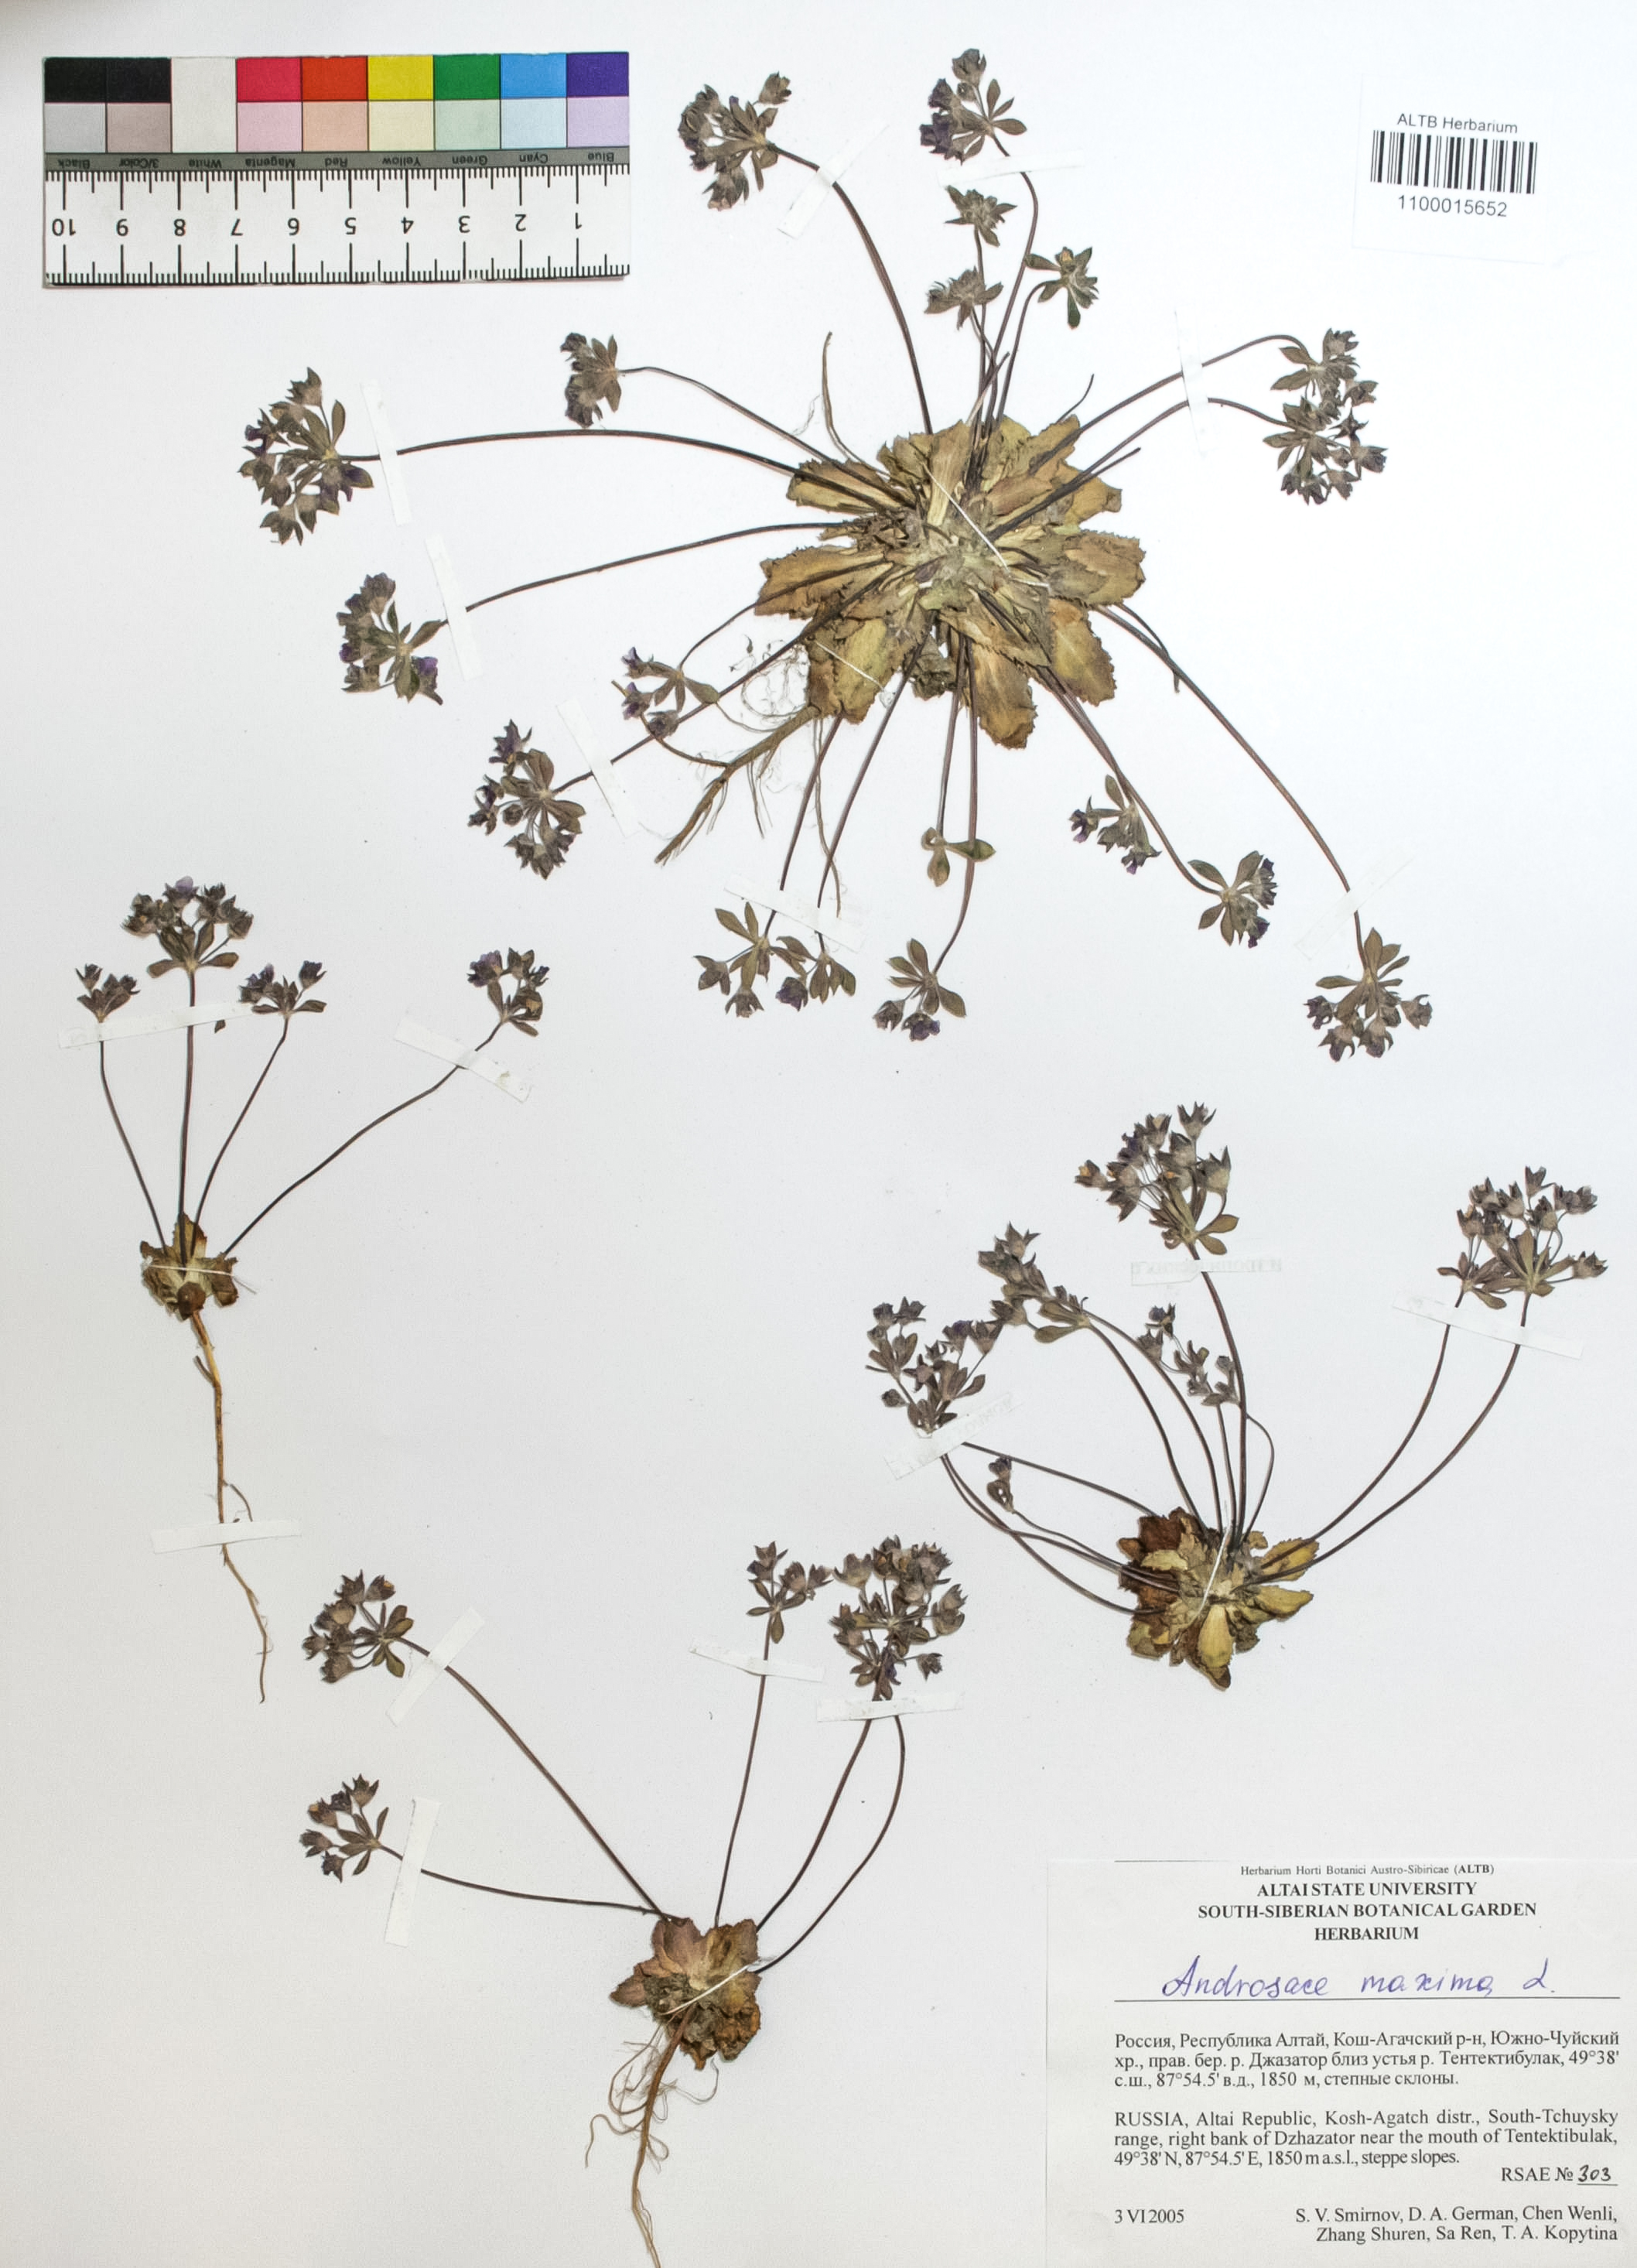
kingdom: Plantae
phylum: Tracheophyta
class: Magnoliopsida
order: Ericales
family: Primulaceae
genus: Androsace
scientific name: Androsace maxima
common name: Annual androsace
